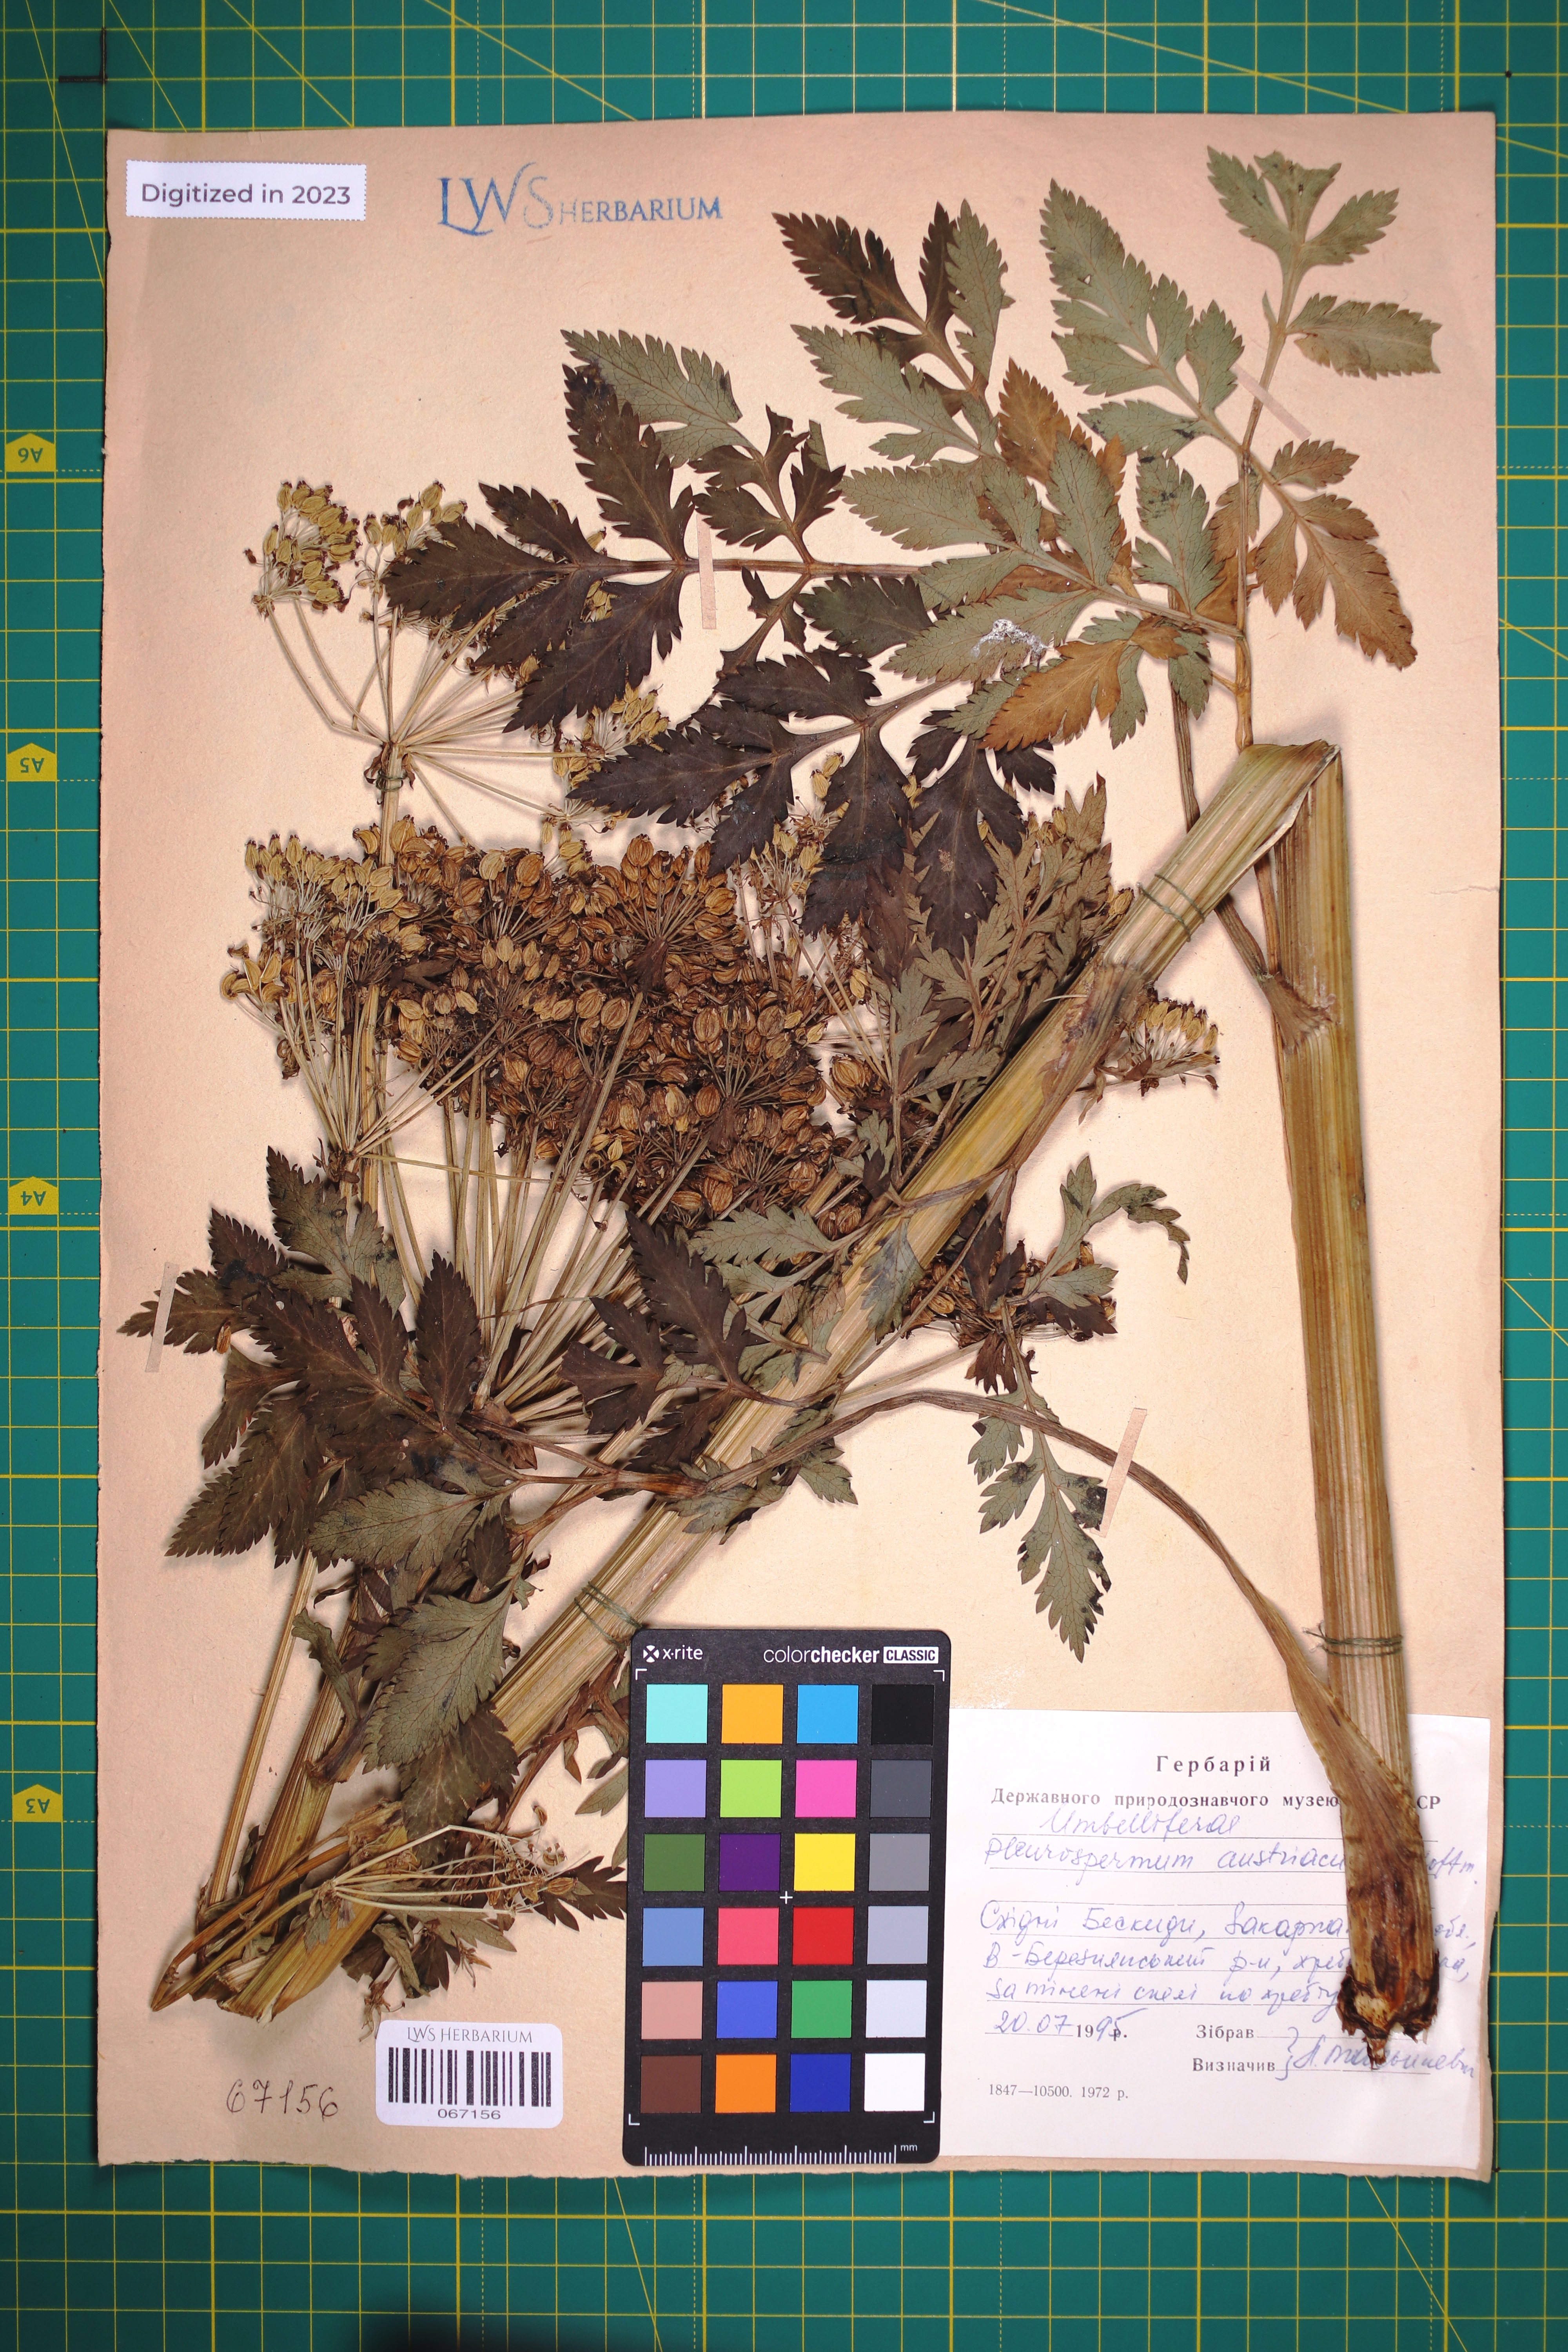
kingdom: Plantae
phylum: Tracheophyta
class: Magnoliopsida
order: Apiales
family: Apiaceae
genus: Pleurospermum
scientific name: Pleurospermum austriacum
